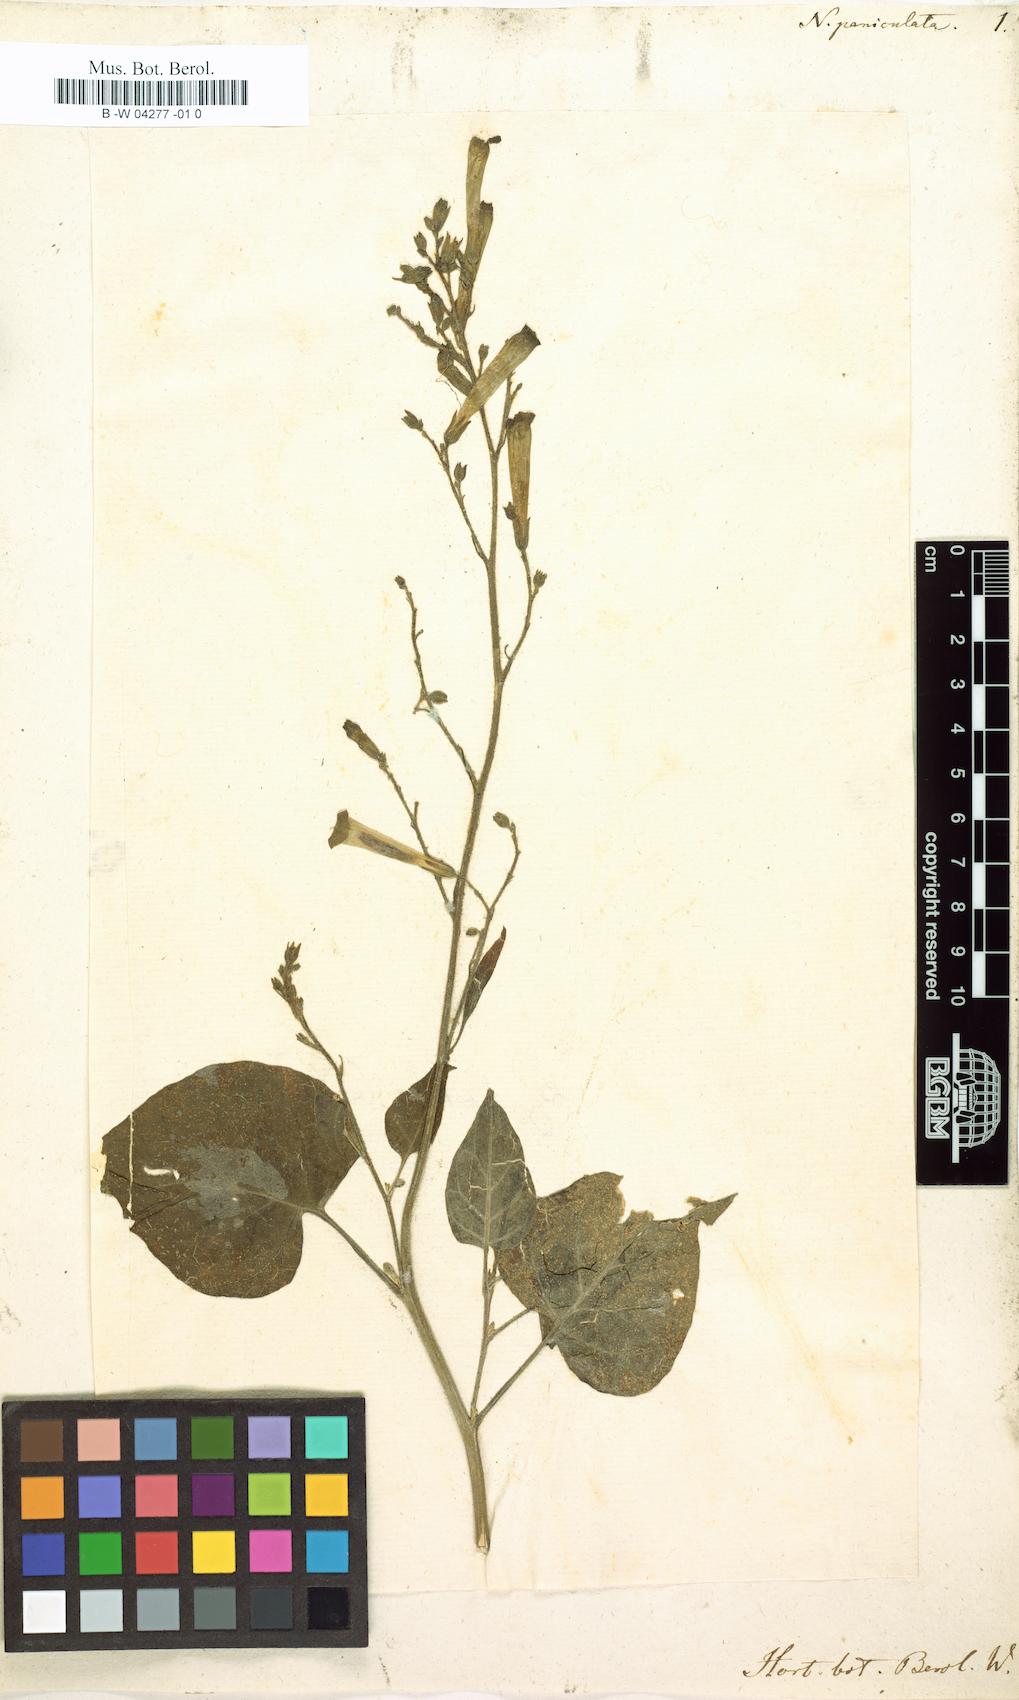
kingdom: Plantae
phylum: Tracheophyta
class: Magnoliopsida
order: Solanales
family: Solanaceae
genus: Nicotiana
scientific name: Nicotiana paniculata
